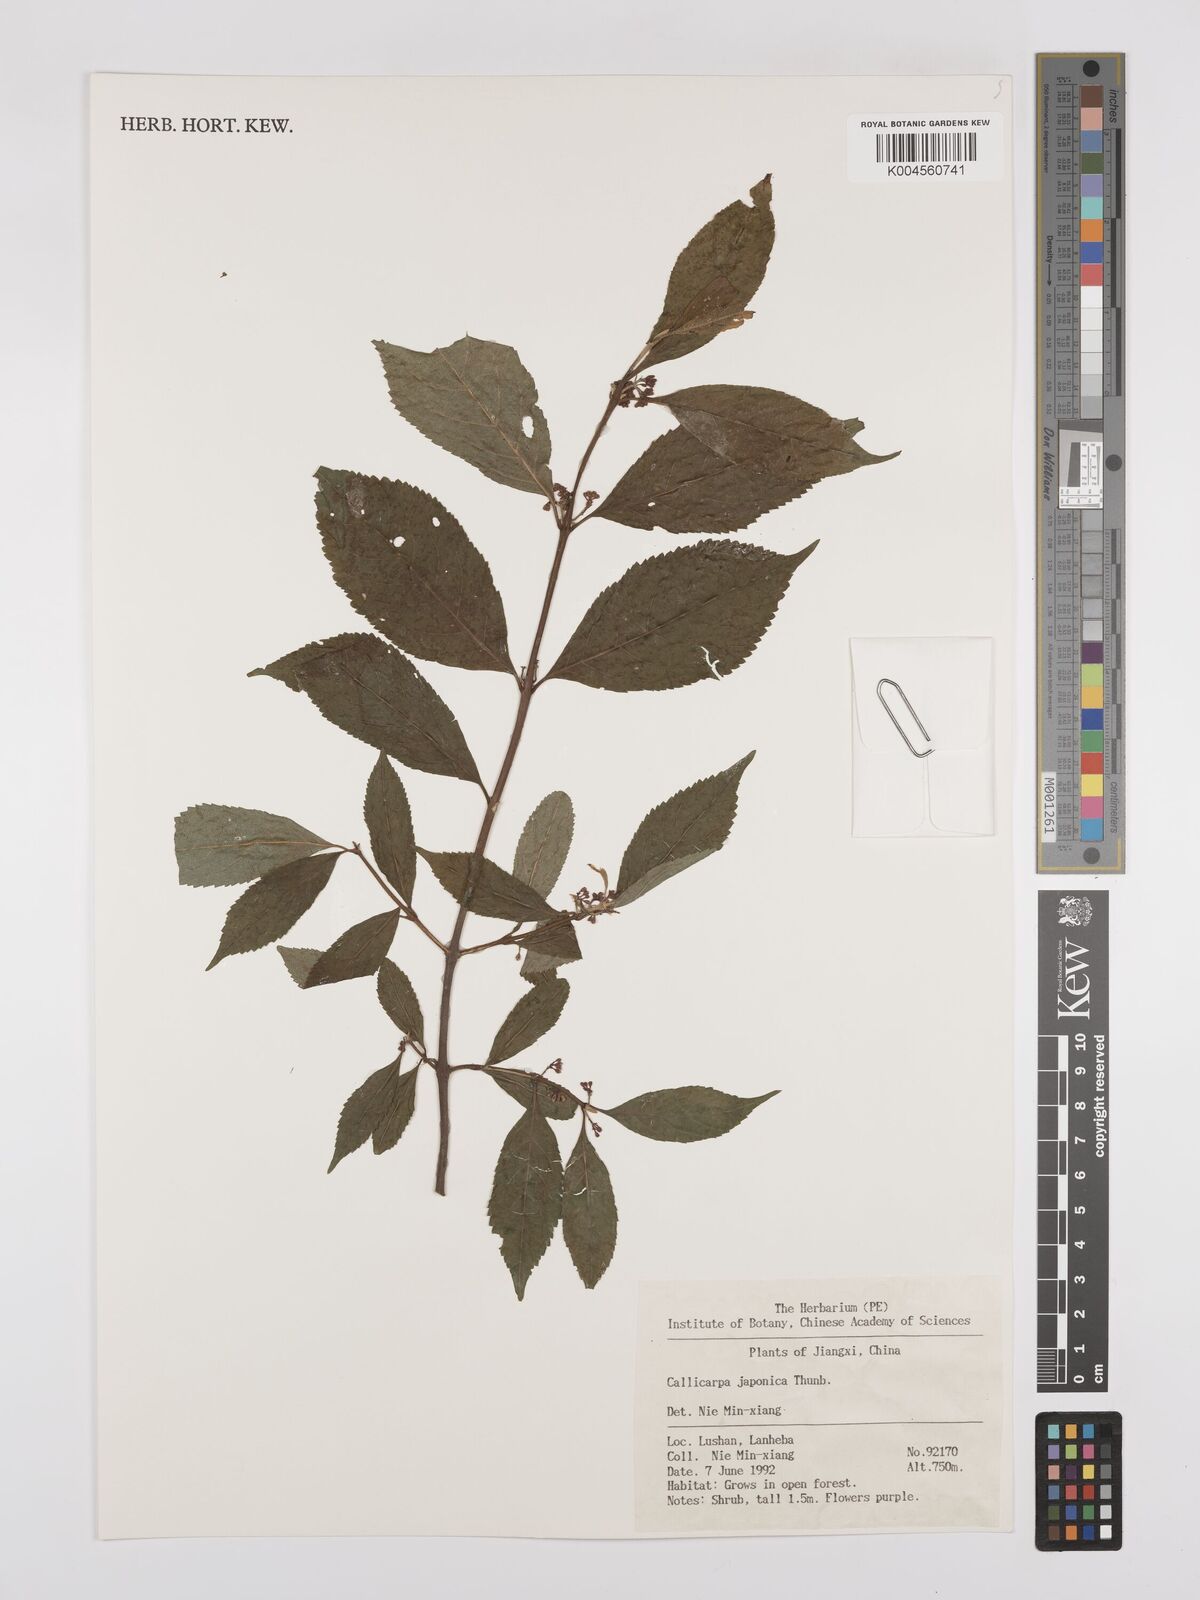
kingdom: Plantae
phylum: Tracheophyta
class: Magnoliopsida
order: Lamiales
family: Lamiaceae
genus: Callicarpa
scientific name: Callicarpa japonica
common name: Japanese beauty-berry
